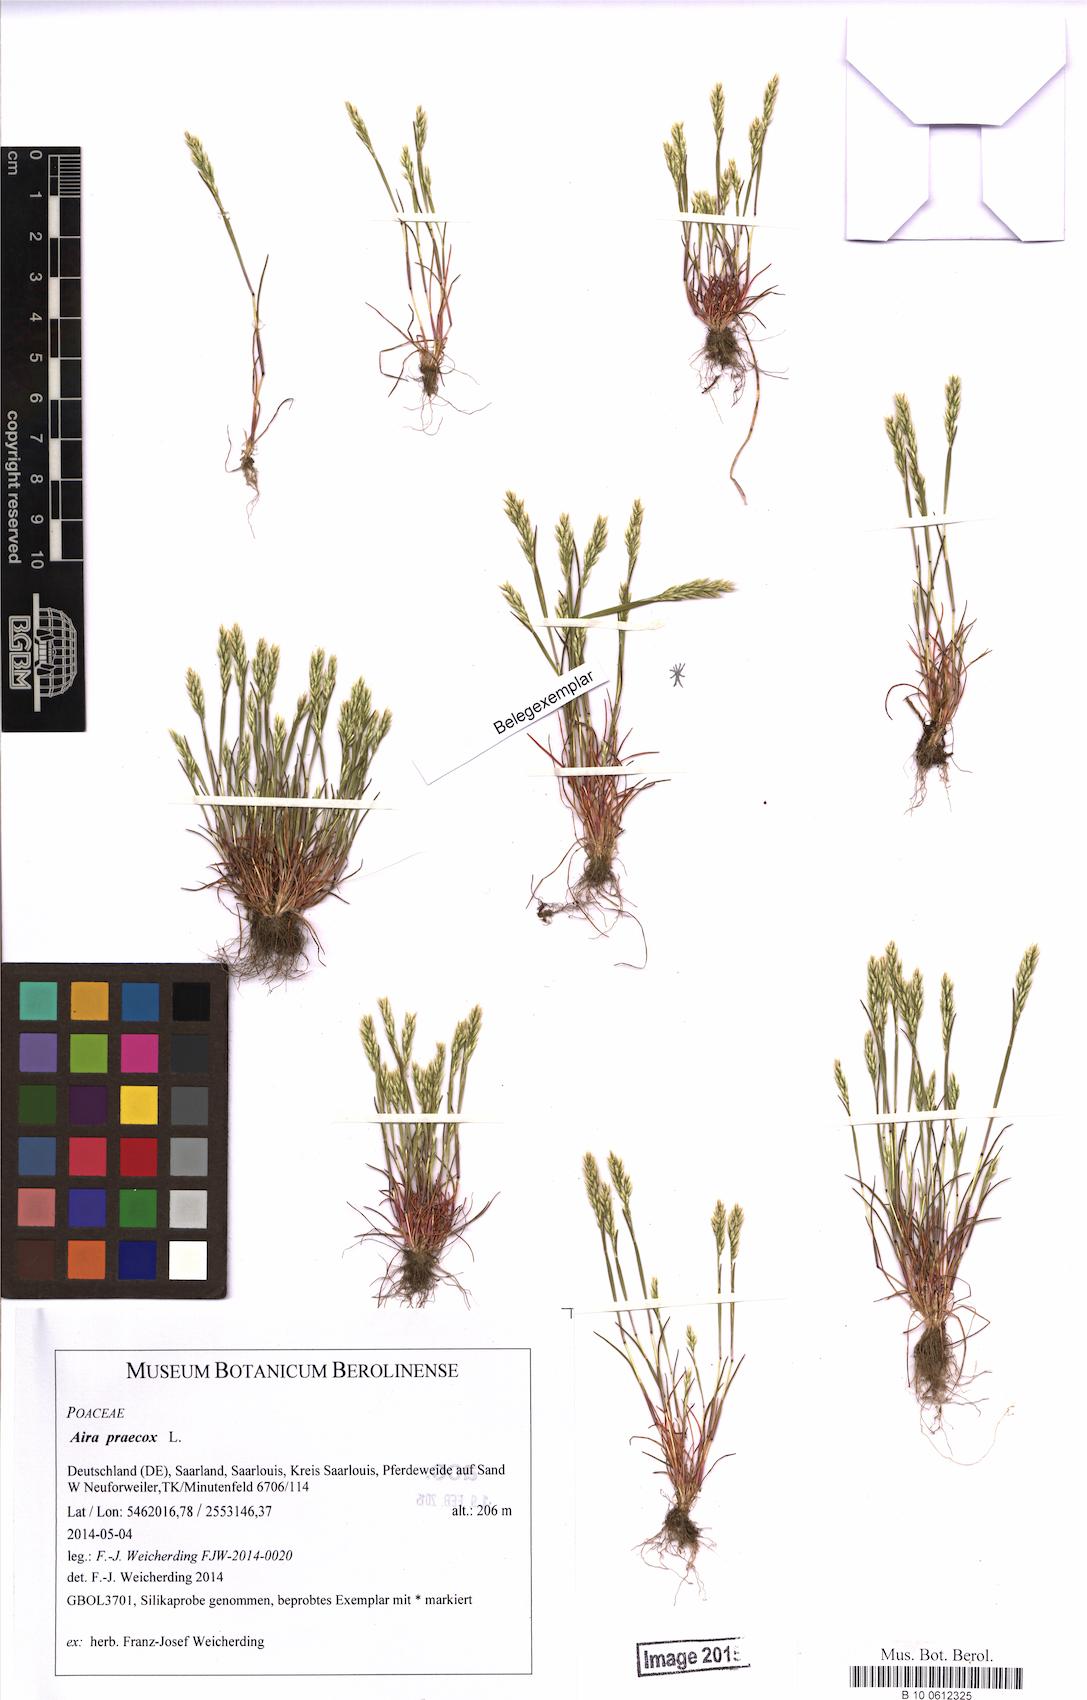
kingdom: Plantae
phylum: Tracheophyta
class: Liliopsida
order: Poales
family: Poaceae
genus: Aira
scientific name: Aira praecox
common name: Early hair-grass
